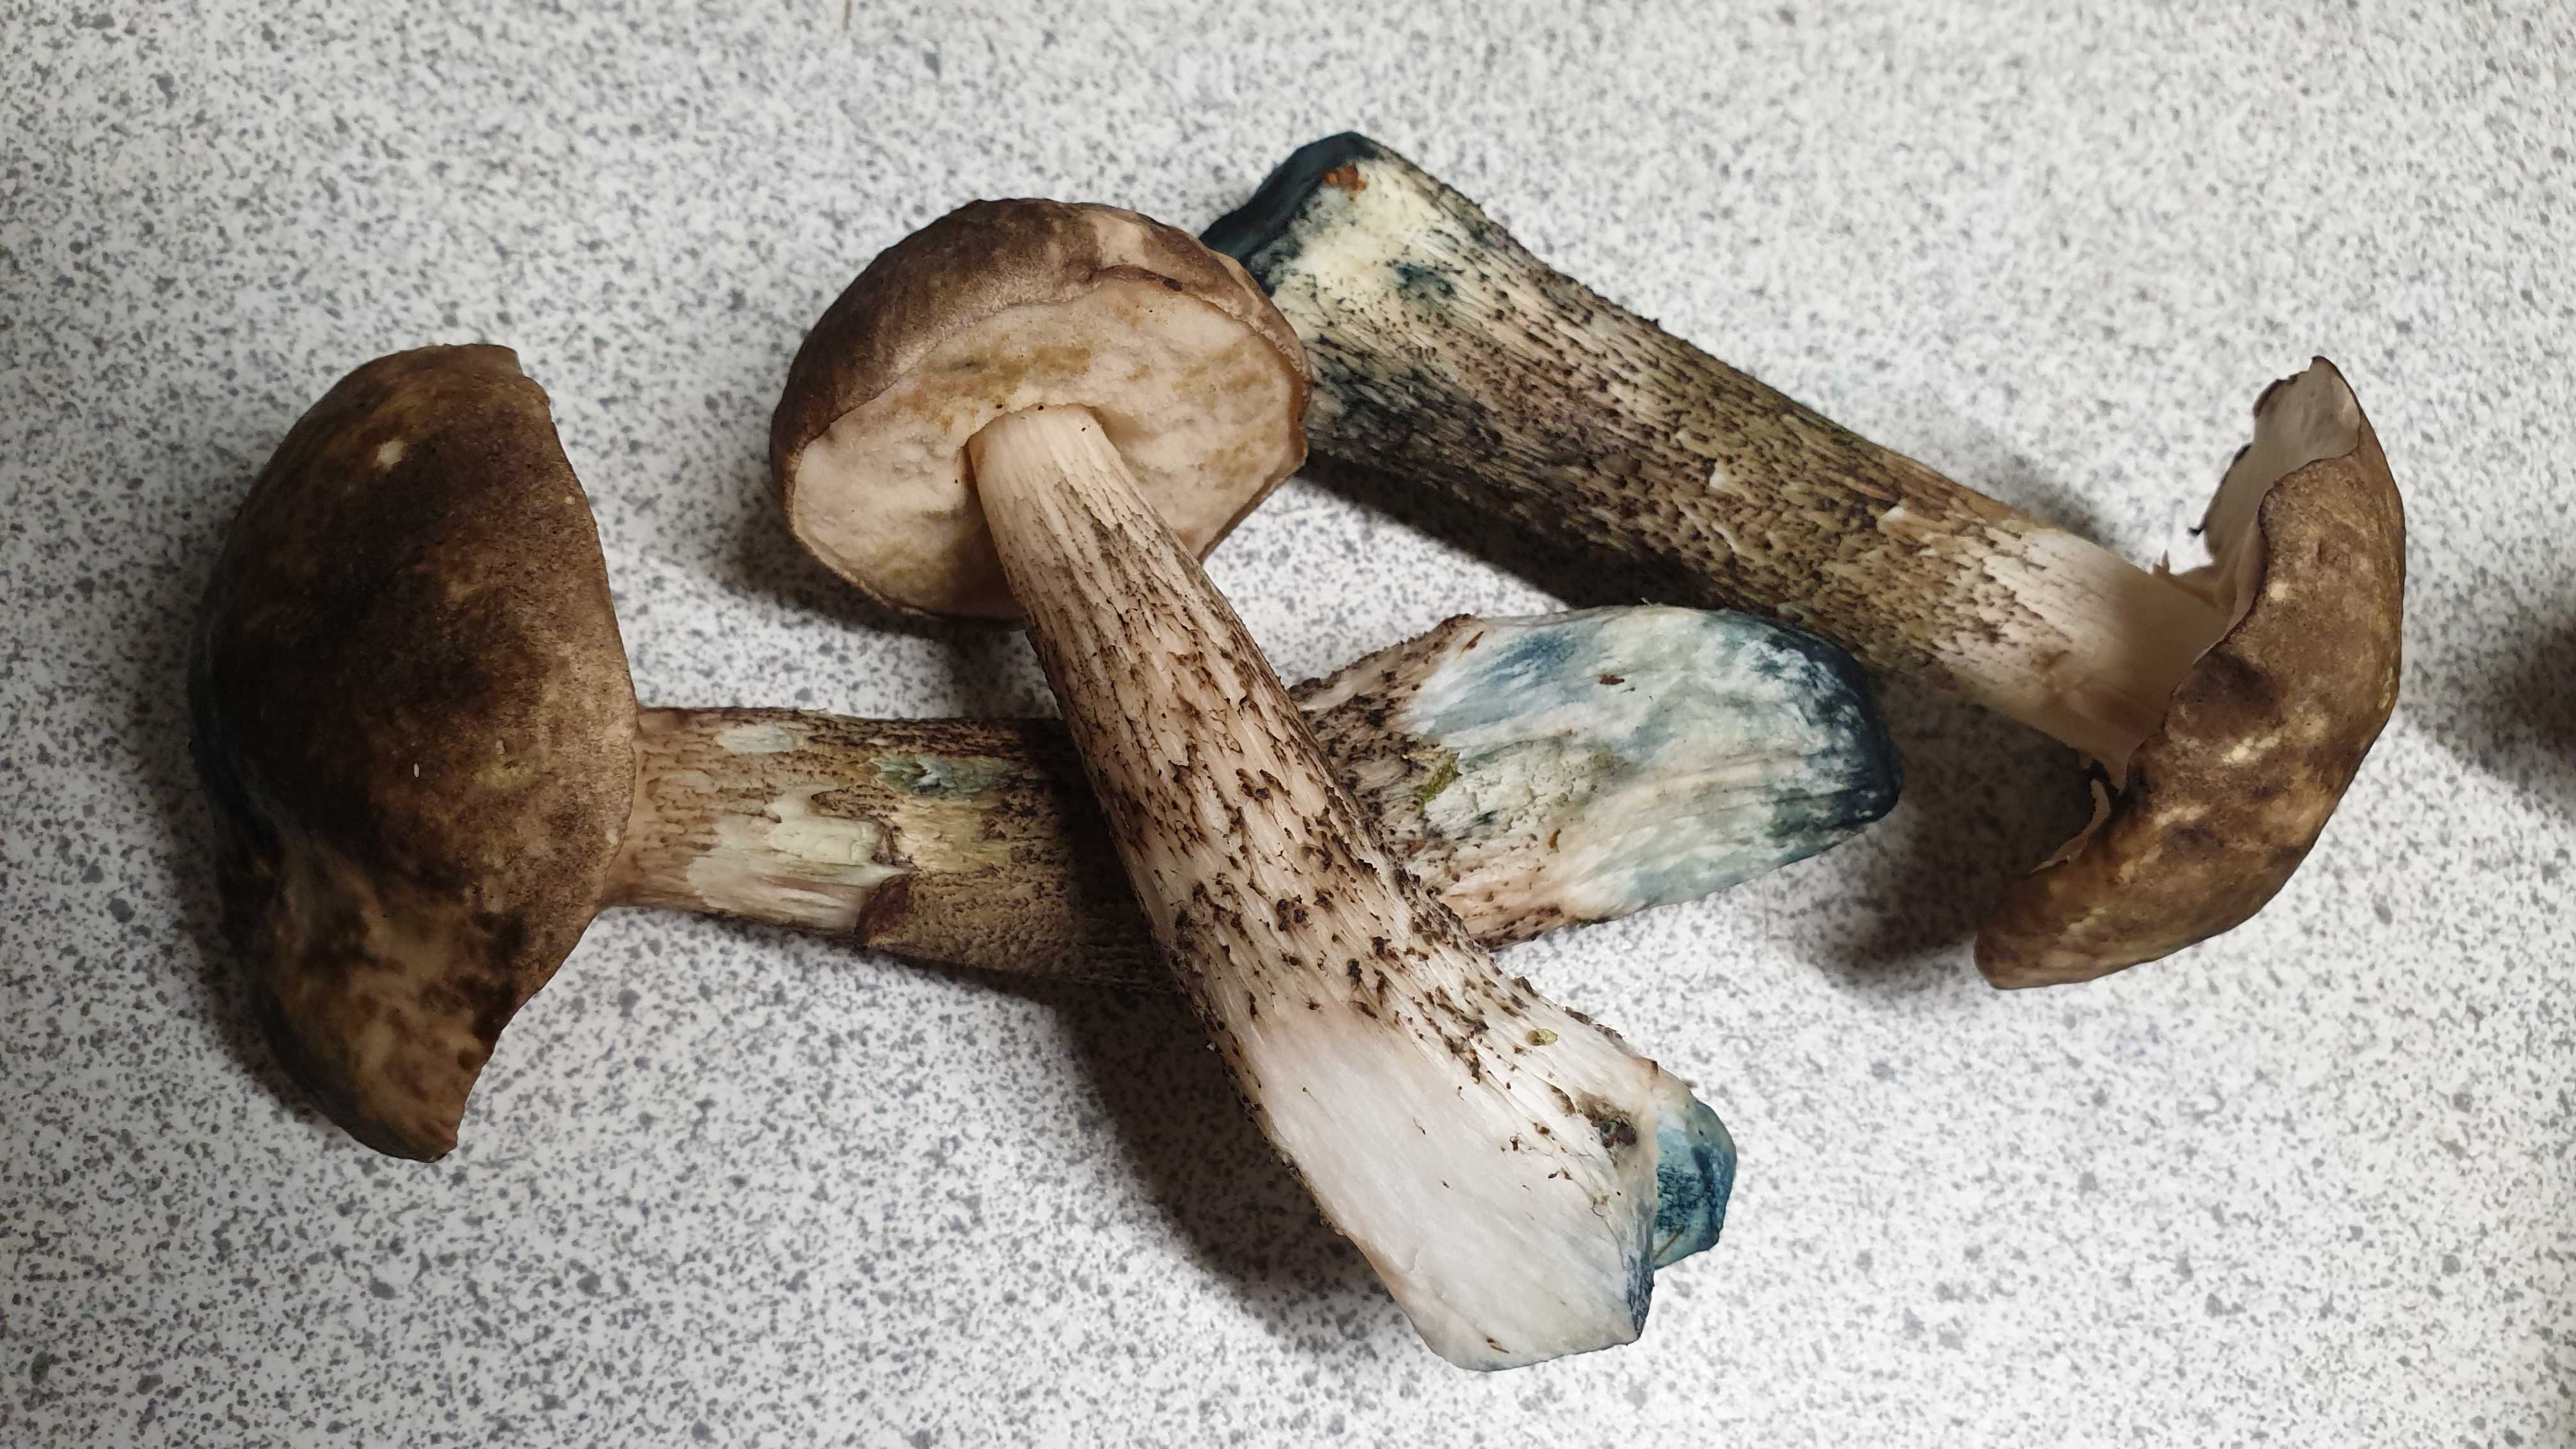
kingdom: Fungi
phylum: Basidiomycota
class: Agaricomycetes
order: Boletales
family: Boletaceae
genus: Leccinum
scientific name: Leccinum variicolor
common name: flammet skælrørhat
